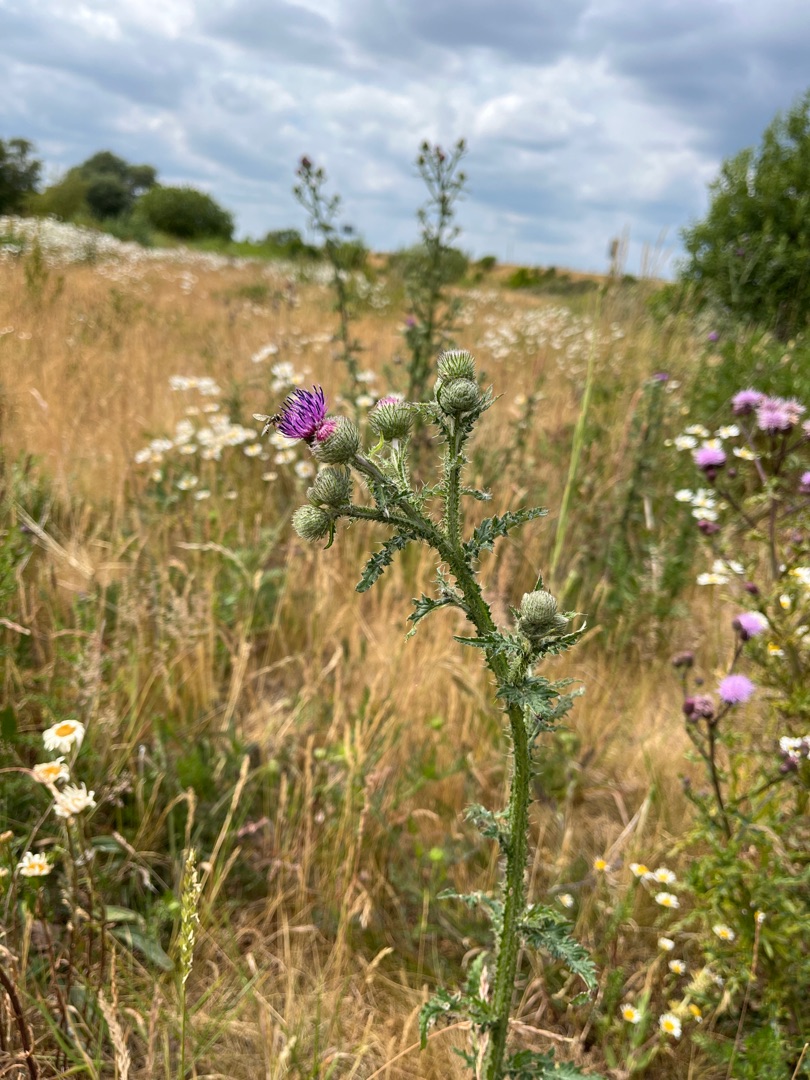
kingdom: Plantae
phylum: Tracheophyta
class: Magnoliopsida
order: Asterales
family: Asteraceae
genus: Carduus
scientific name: Carduus crispus
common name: Kruset tidsel
